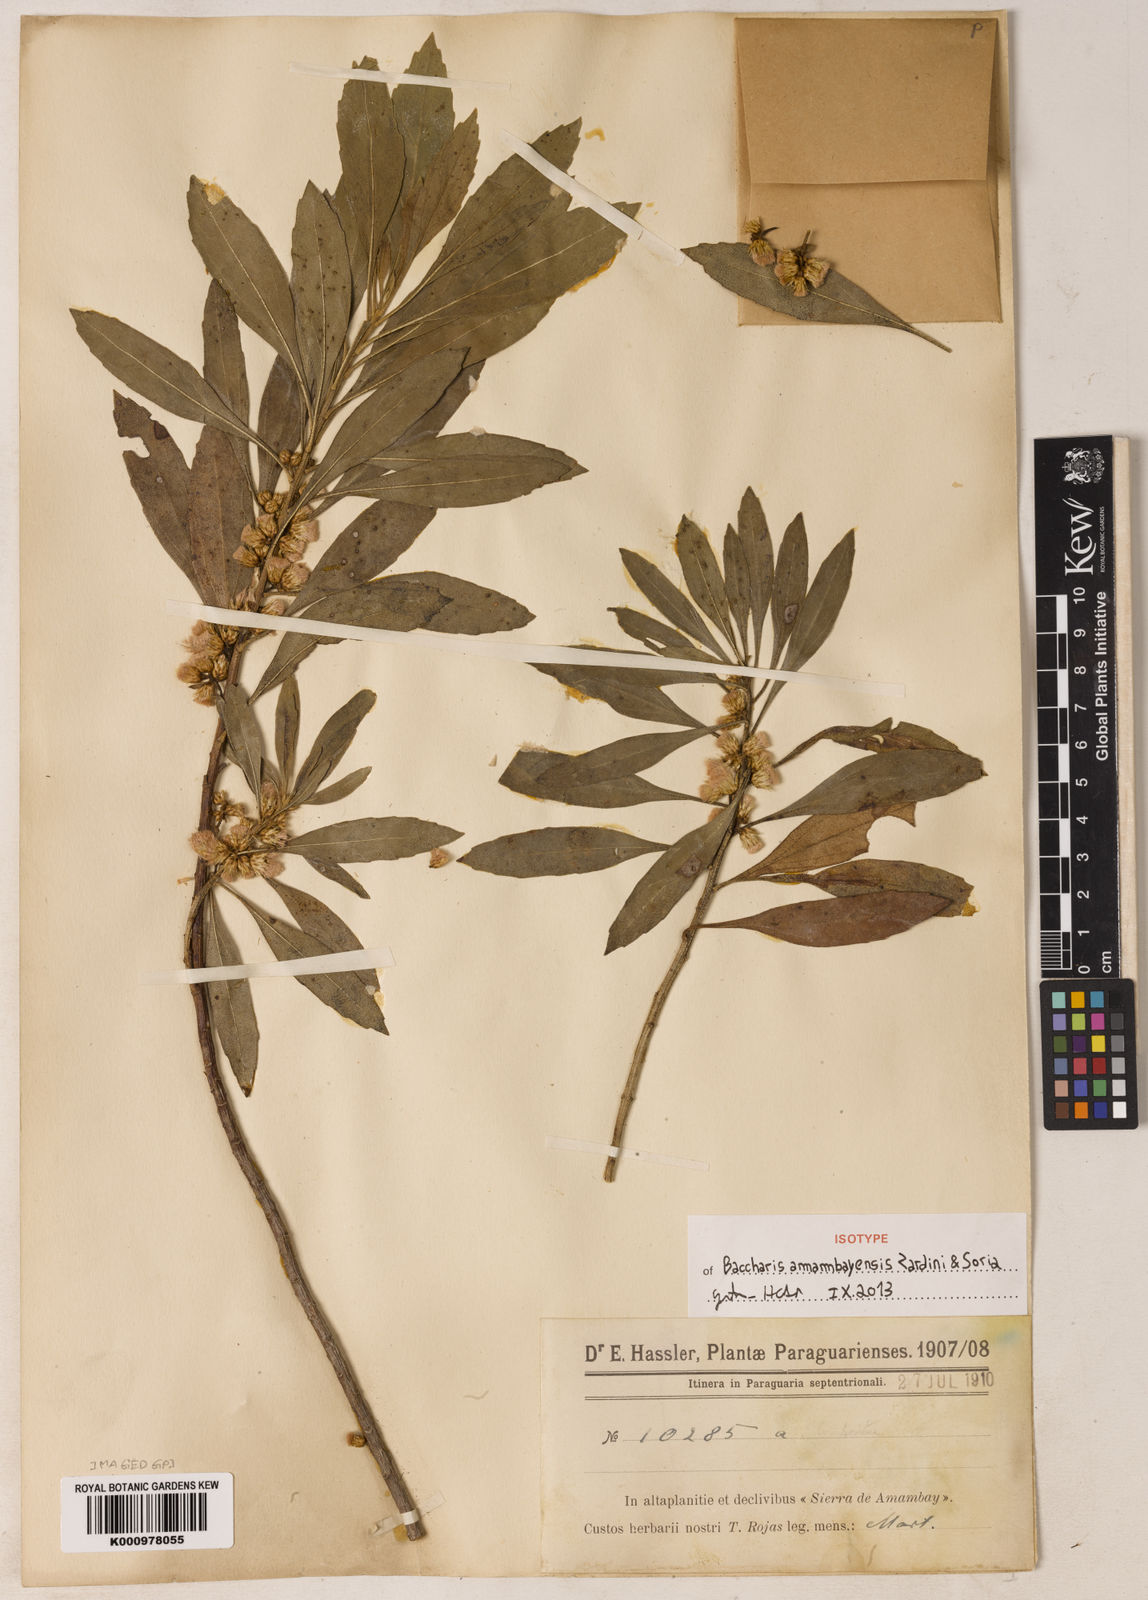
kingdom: Plantae
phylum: Tracheophyta
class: Magnoliopsida
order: Asterales
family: Asteraceae
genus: Baccharis
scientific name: Baccharis amambayensis
